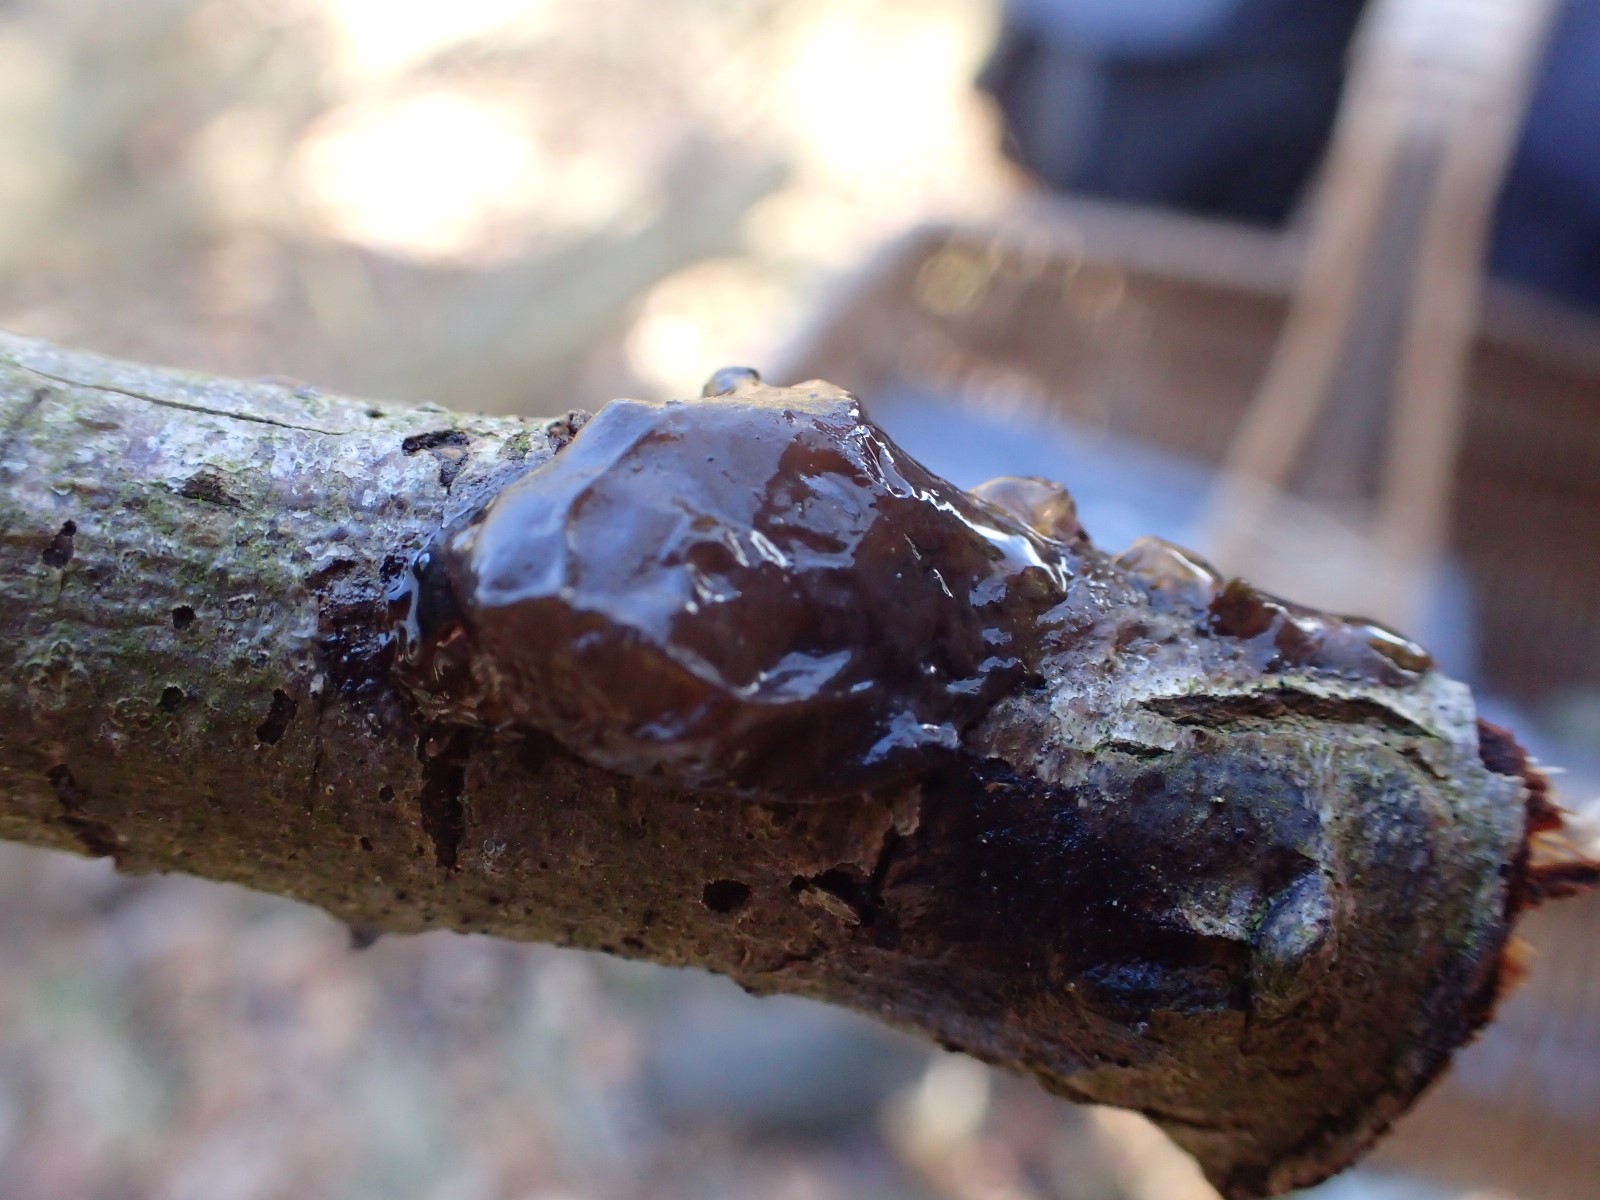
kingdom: Fungi
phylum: Basidiomycota
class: Agaricomycetes
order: Auriculariales
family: Auriculariaceae
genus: Exidia
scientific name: Exidia recisa
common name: pile-bævretop
